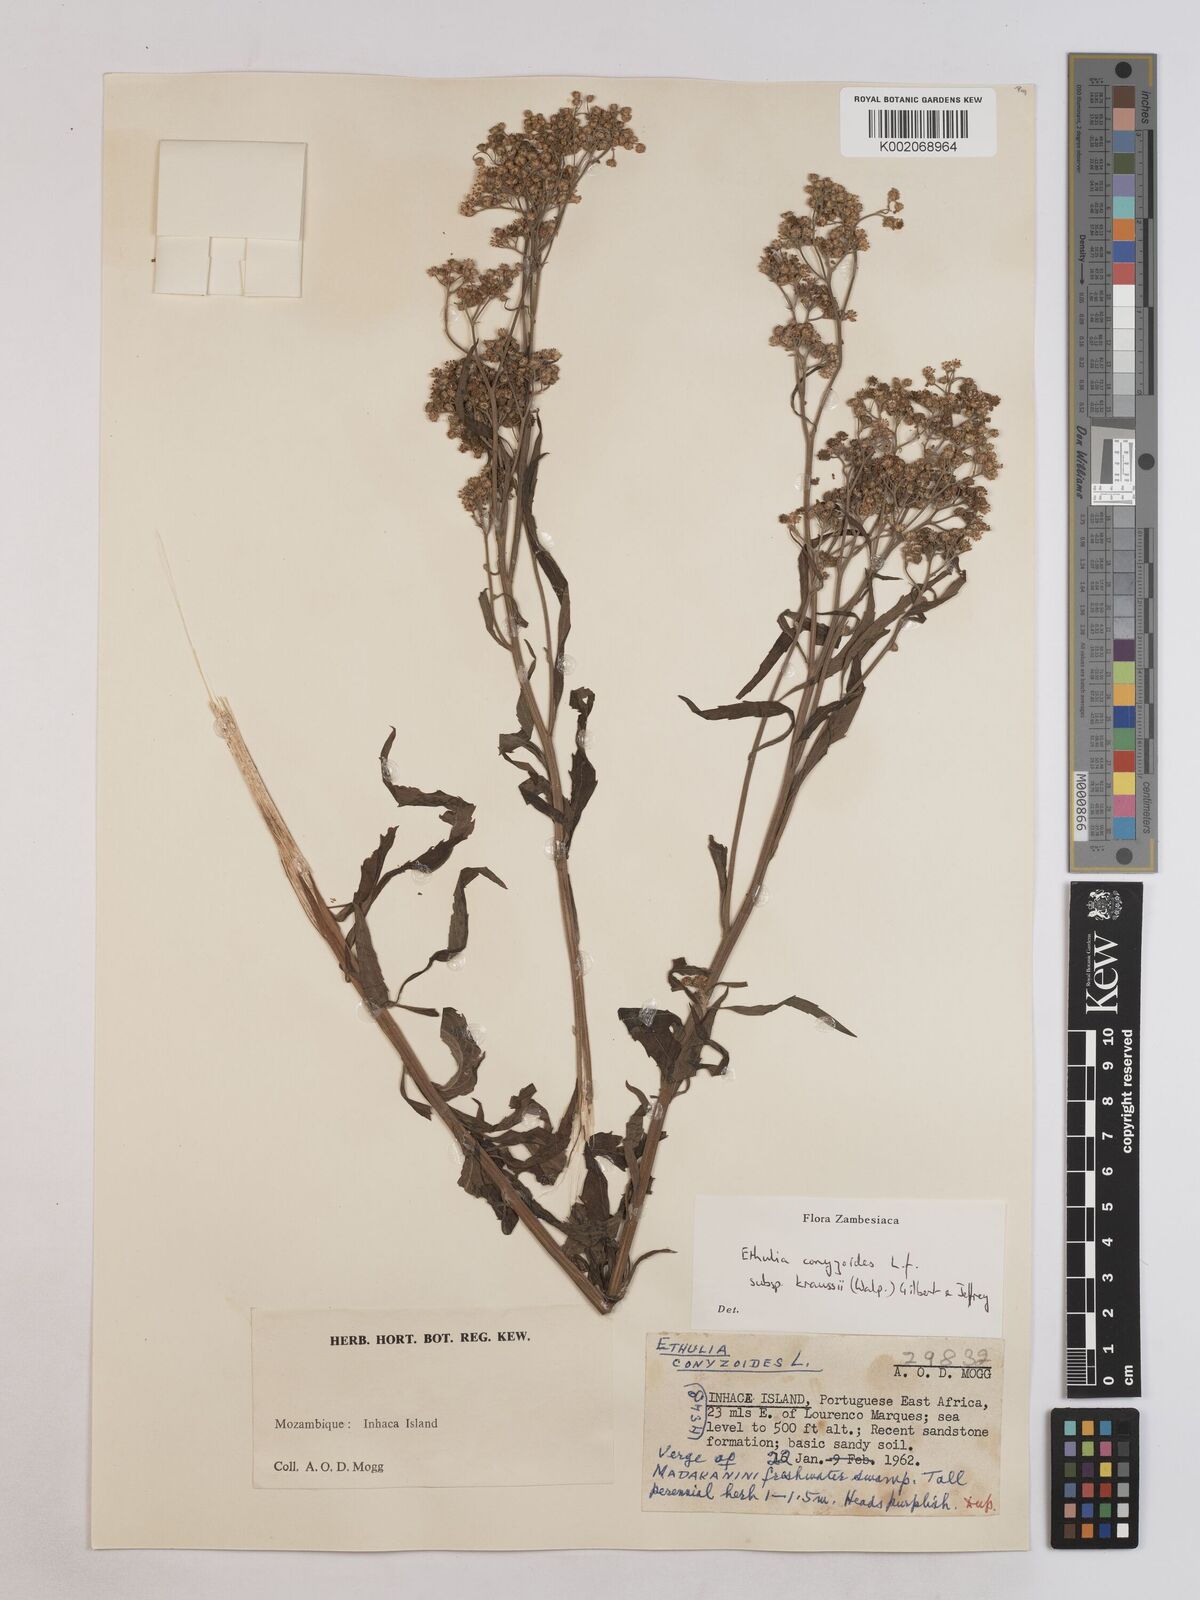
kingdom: Plantae
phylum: Tracheophyta
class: Magnoliopsida
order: Asterales
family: Asteraceae
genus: Ethulia
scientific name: Ethulia conyzoides
